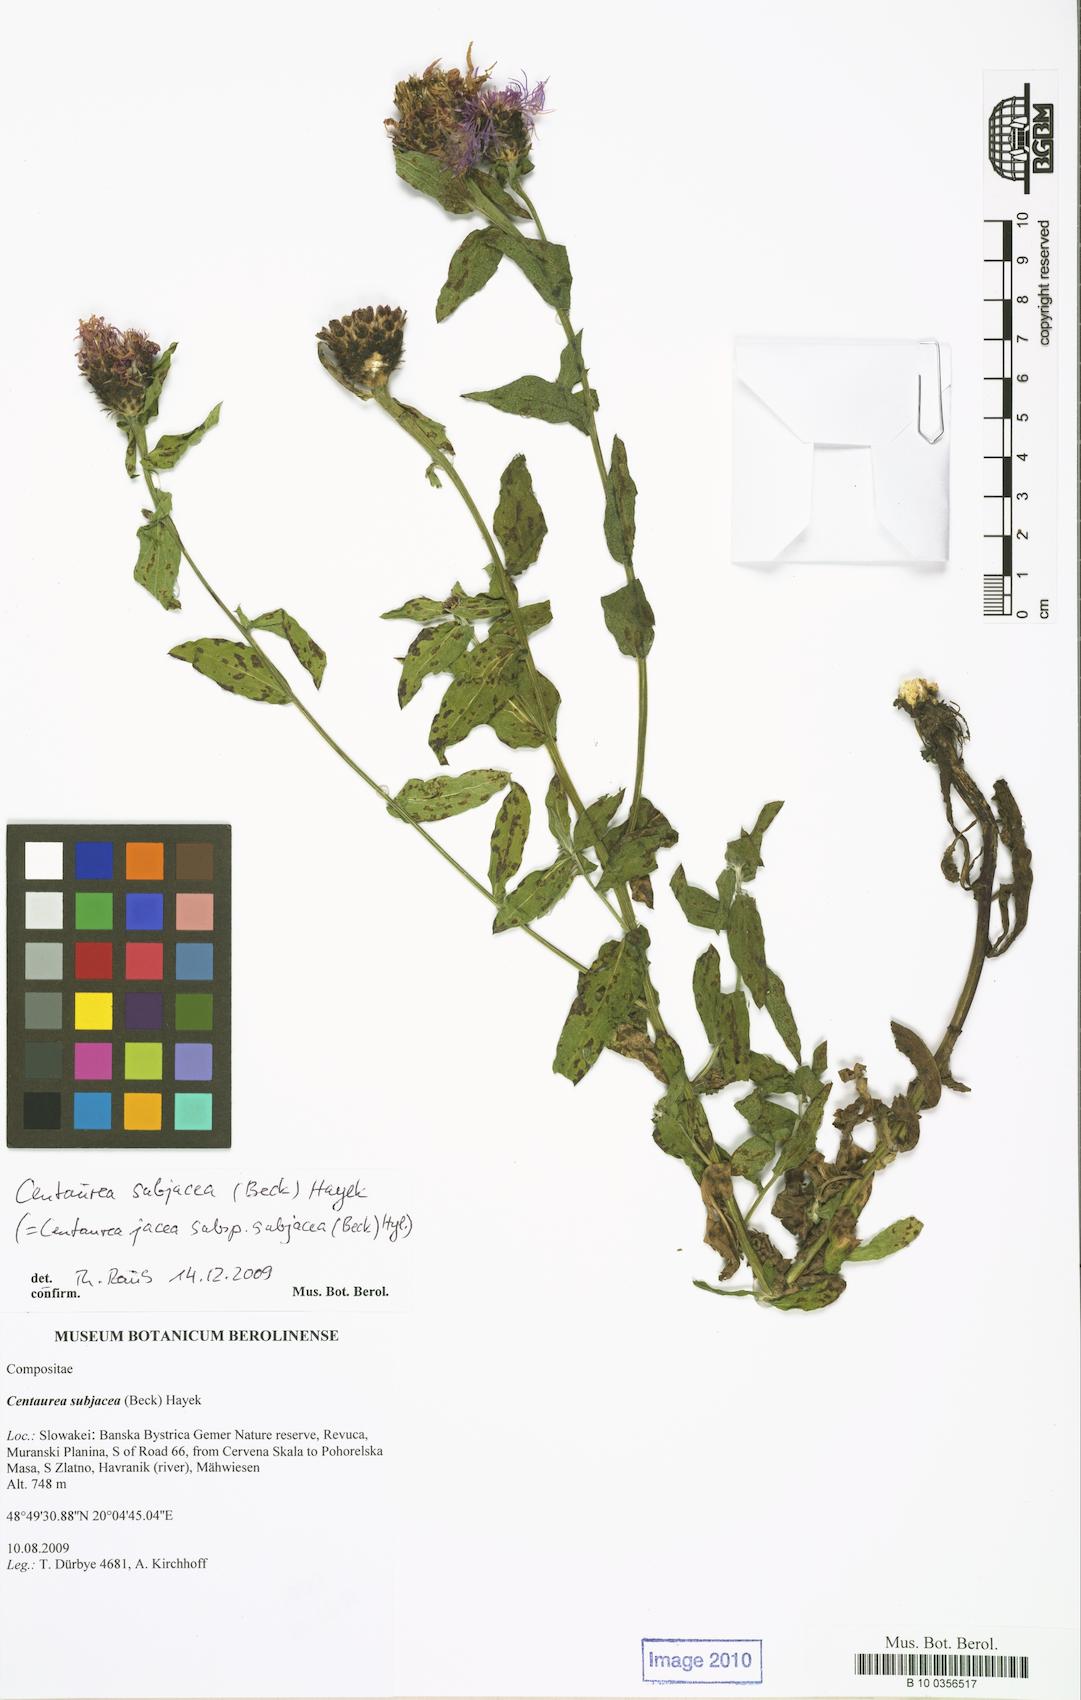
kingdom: Plantae
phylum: Tracheophyta
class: Magnoliopsida
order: Asterales
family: Asteraceae
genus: Centaurea
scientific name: Centaurea preissmannii
